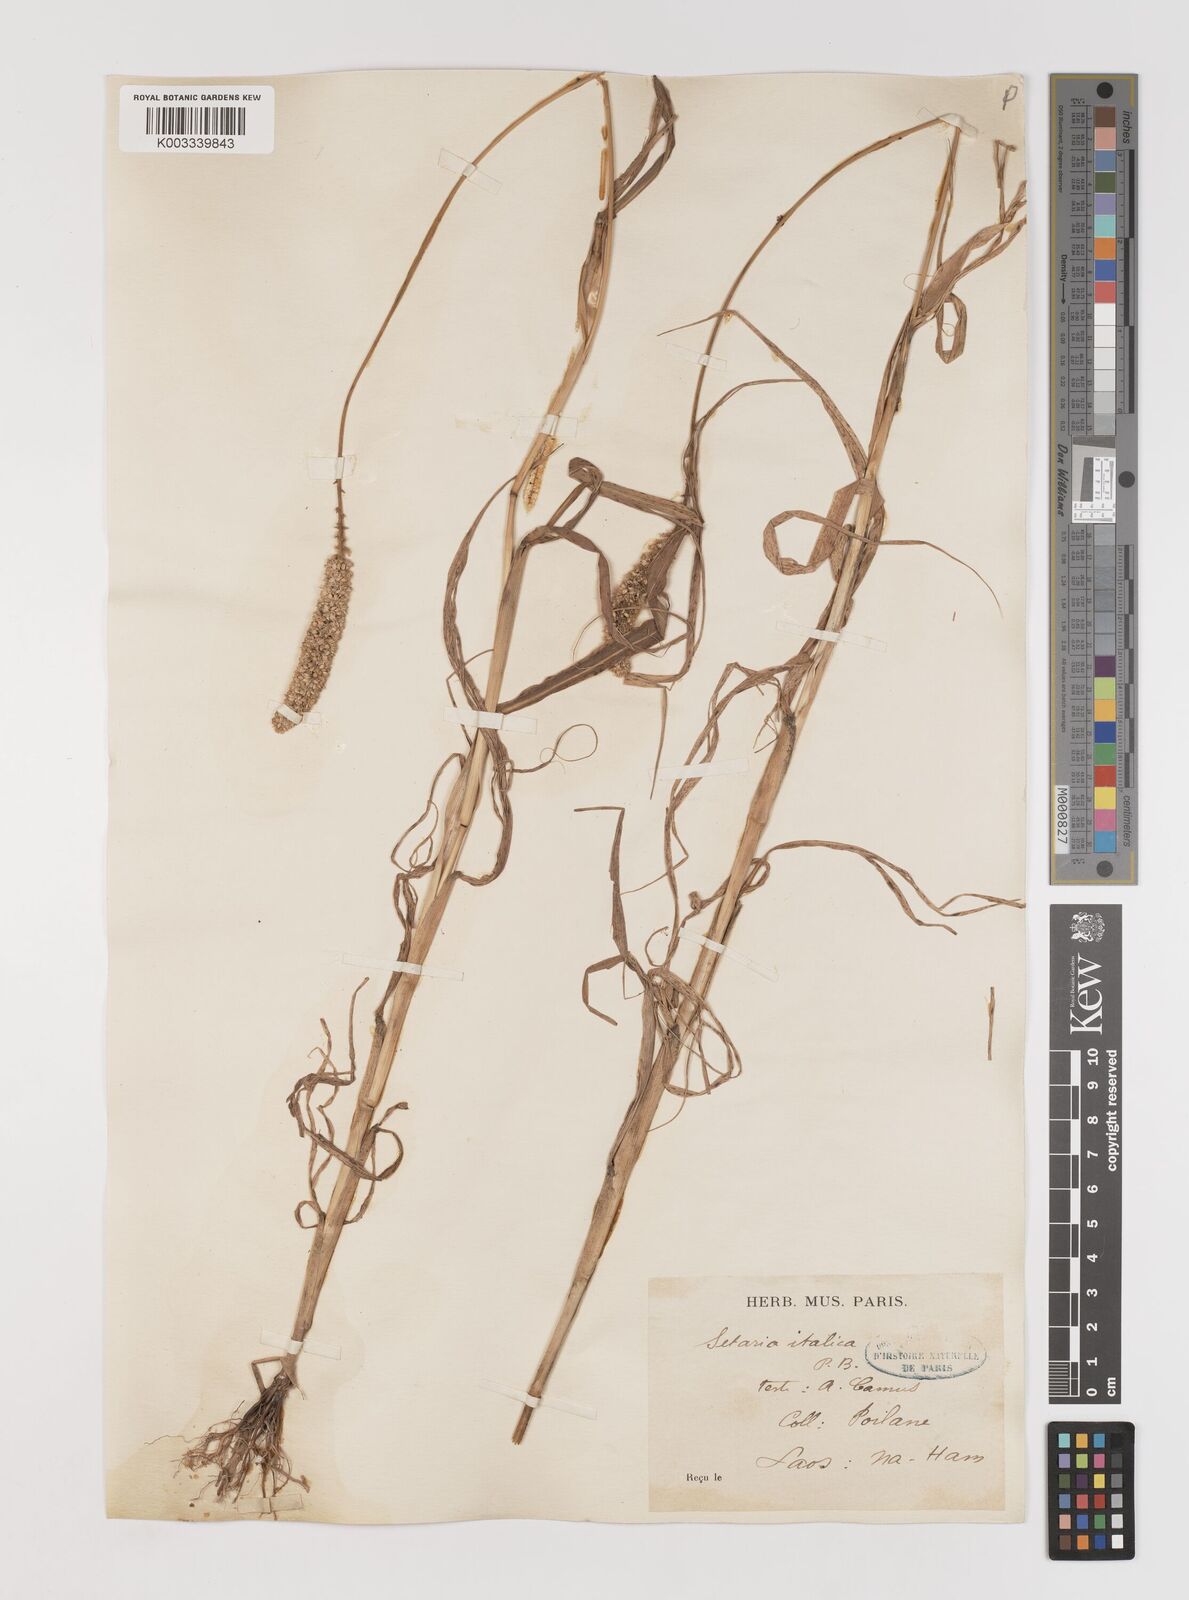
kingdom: Plantae
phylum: Tracheophyta
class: Liliopsida
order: Poales
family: Poaceae
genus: Setaria
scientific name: Setaria italica
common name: Foxtail bristle-grass
